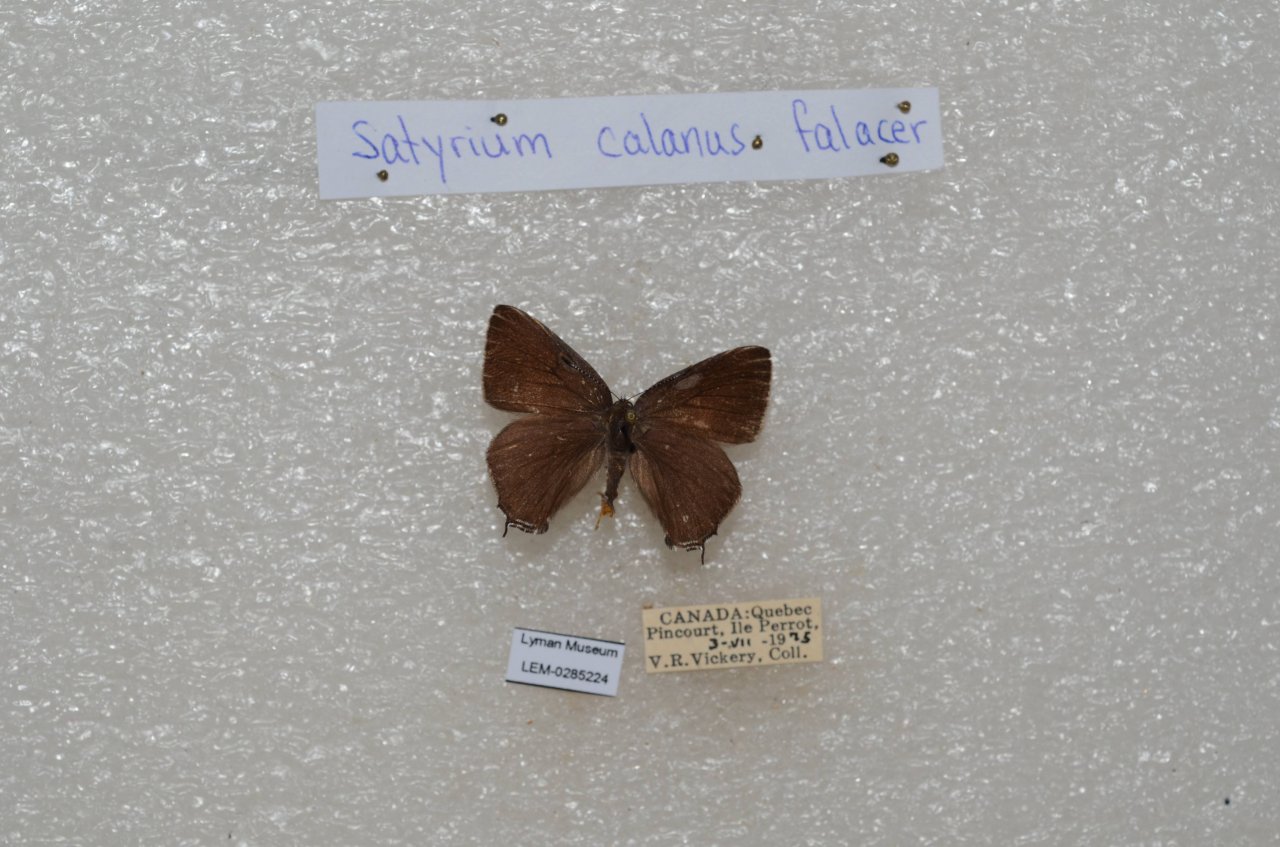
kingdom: Animalia
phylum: Arthropoda
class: Insecta
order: Lepidoptera
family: Lycaenidae
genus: Satyrium
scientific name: Satyrium calanus
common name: Banded Hairstreak
